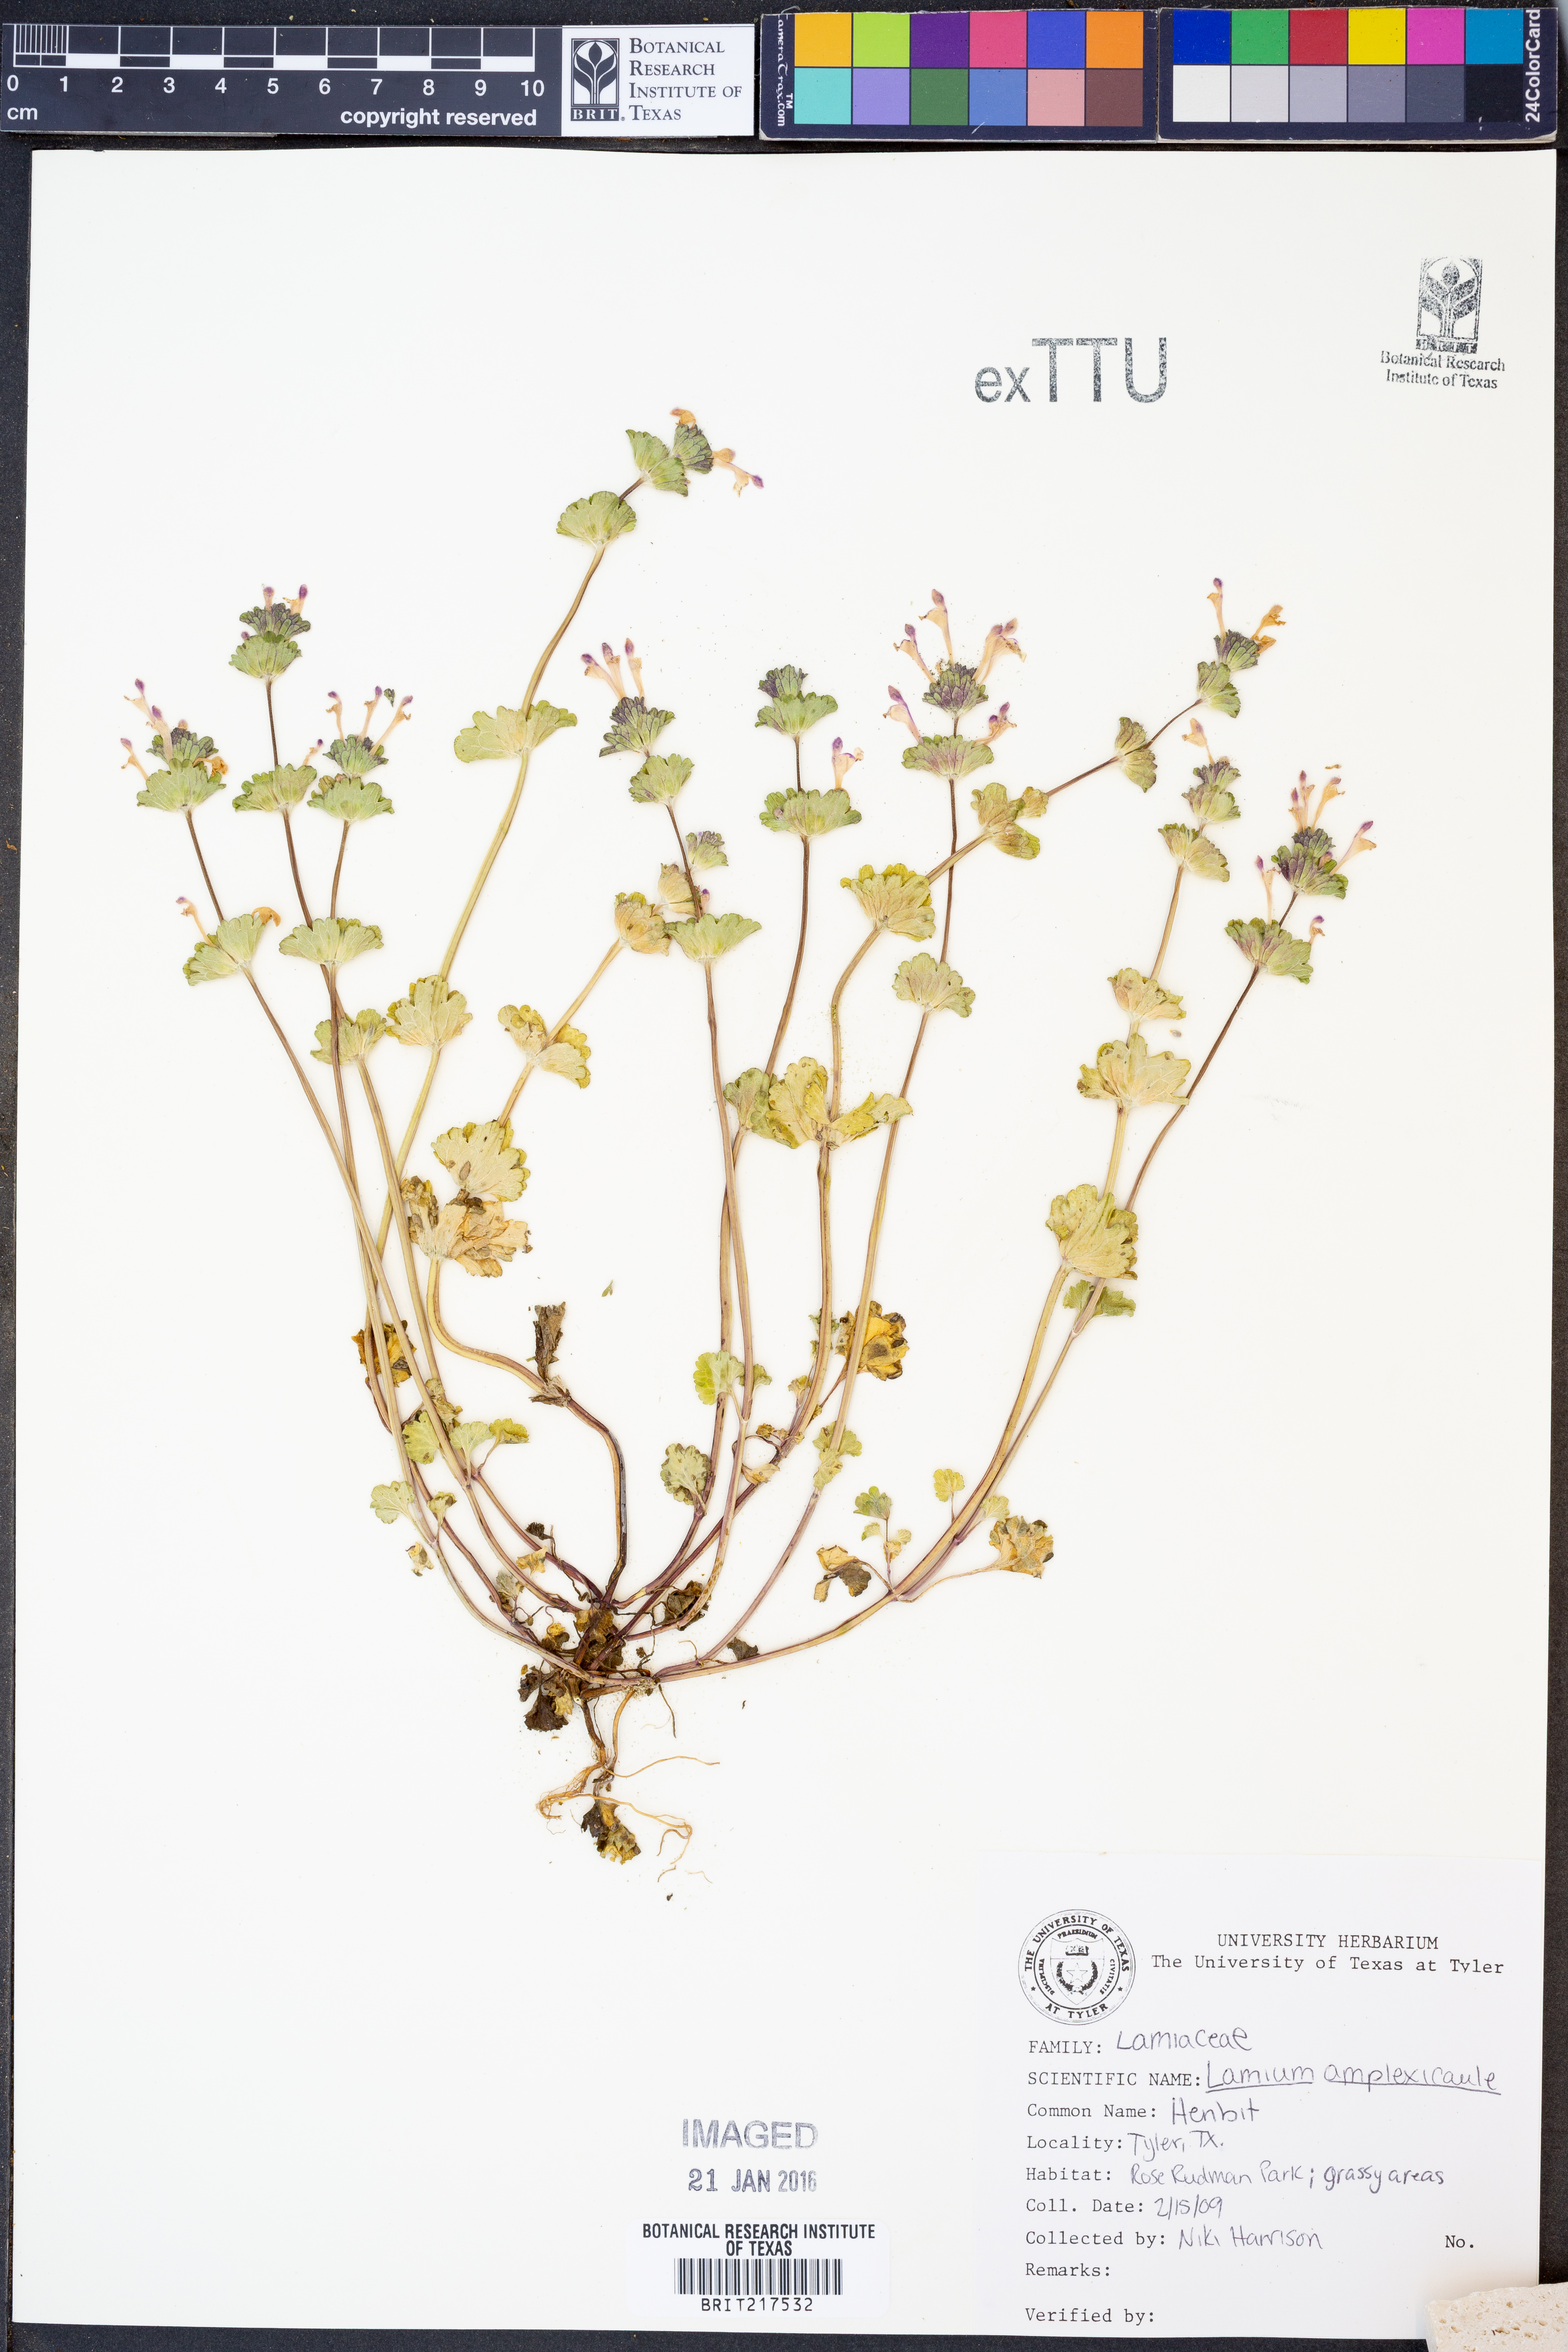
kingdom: Plantae
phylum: Tracheophyta
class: Magnoliopsida
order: Lamiales
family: Lamiaceae
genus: Lamium
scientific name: Lamium amplexicaule
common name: Henbit dead-nettle
